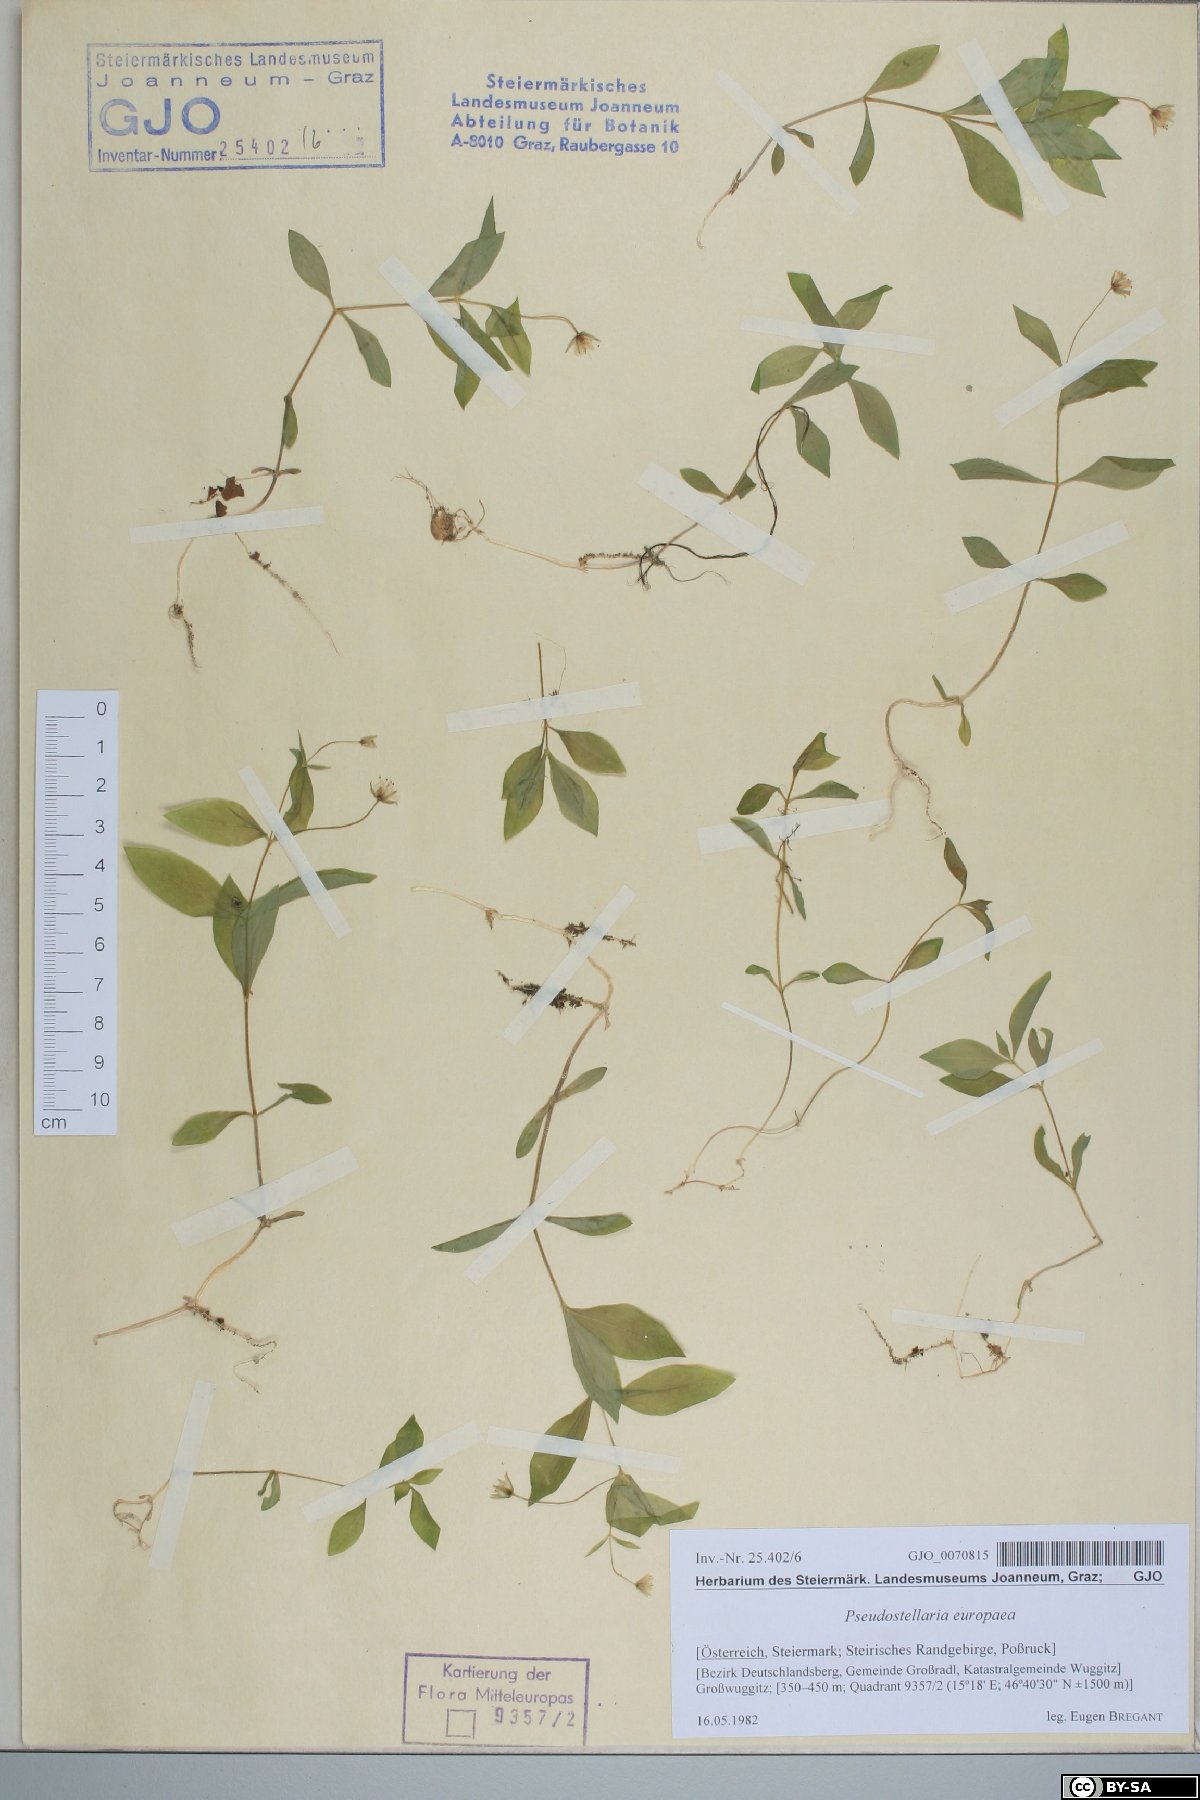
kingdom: Plantae
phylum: Tracheophyta
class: Magnoliopsida
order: Caryophyllales
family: Caryophyllaceae
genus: Pseudostellaria
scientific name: Pseudostellaria europaea
